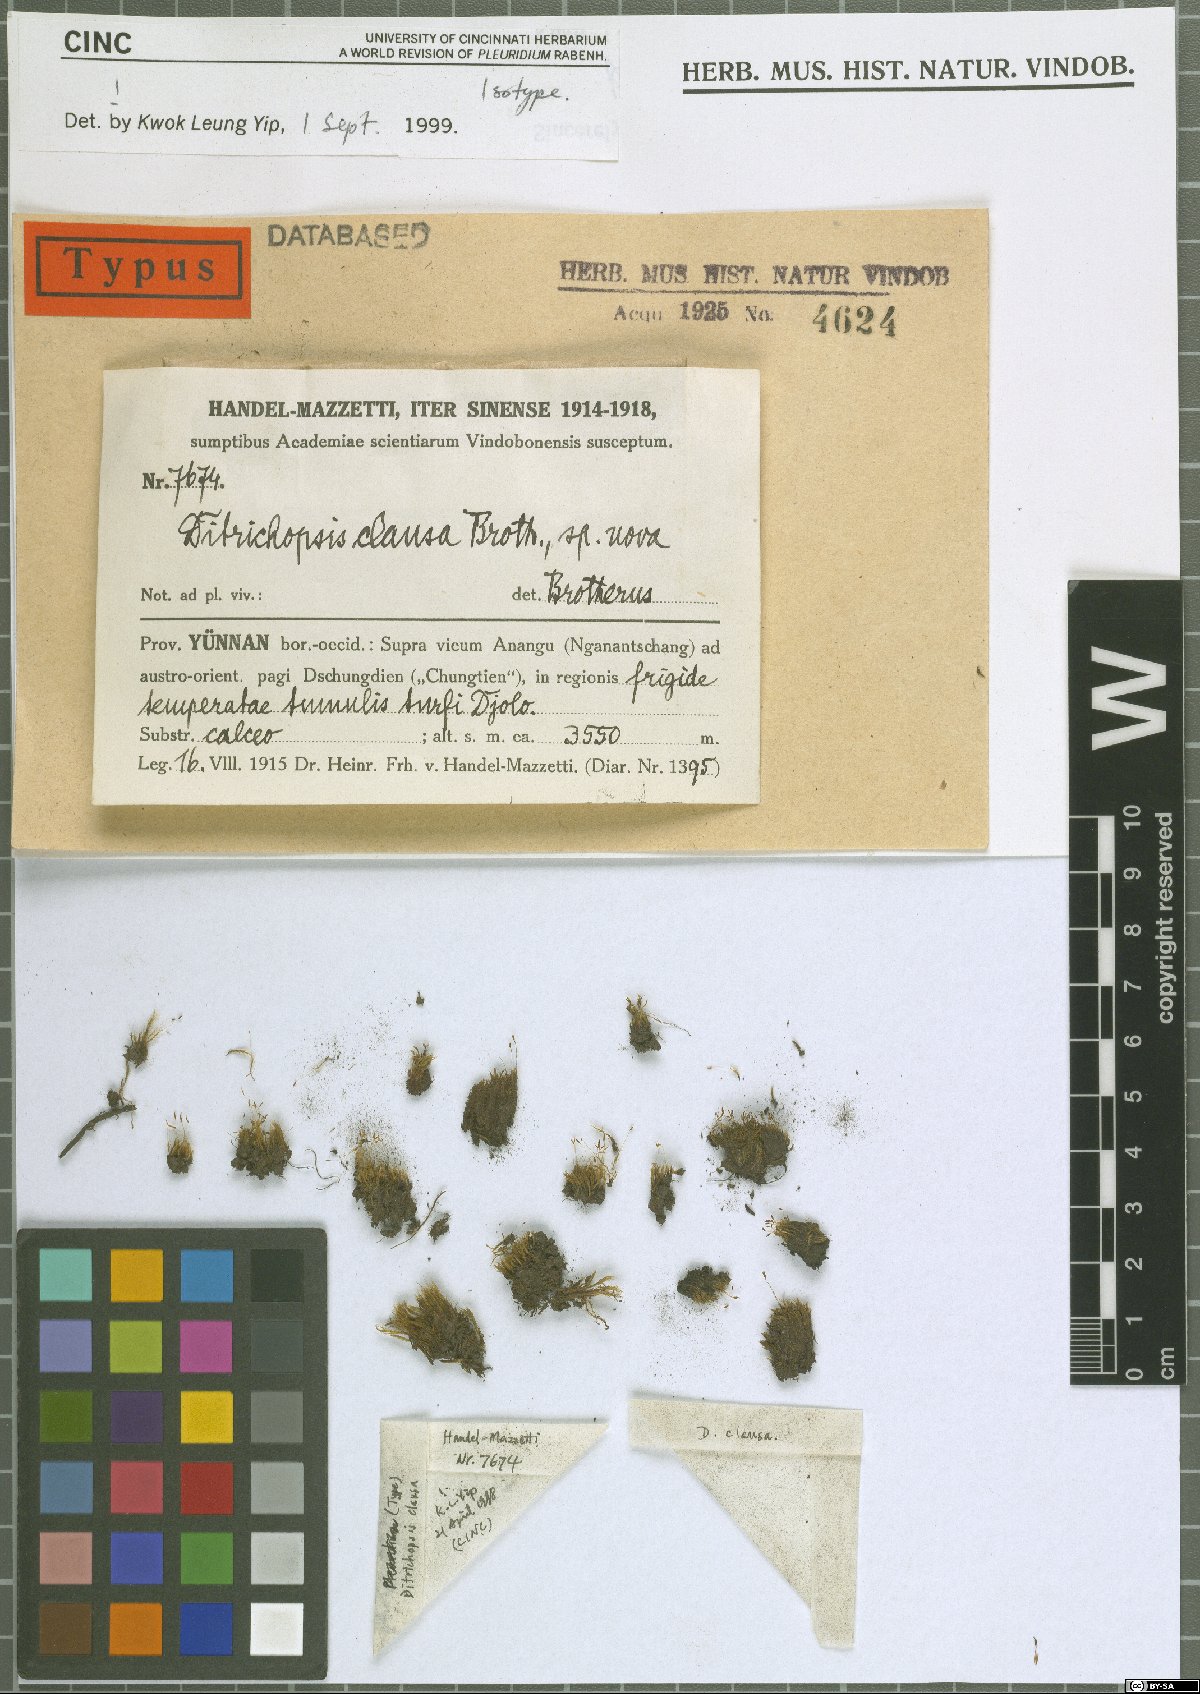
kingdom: Plantae
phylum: Bryophyta
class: Bryopsida
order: Dicranales
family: Ditrichaceae
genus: Ditrichopsis
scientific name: Ditrichopsis clausa
